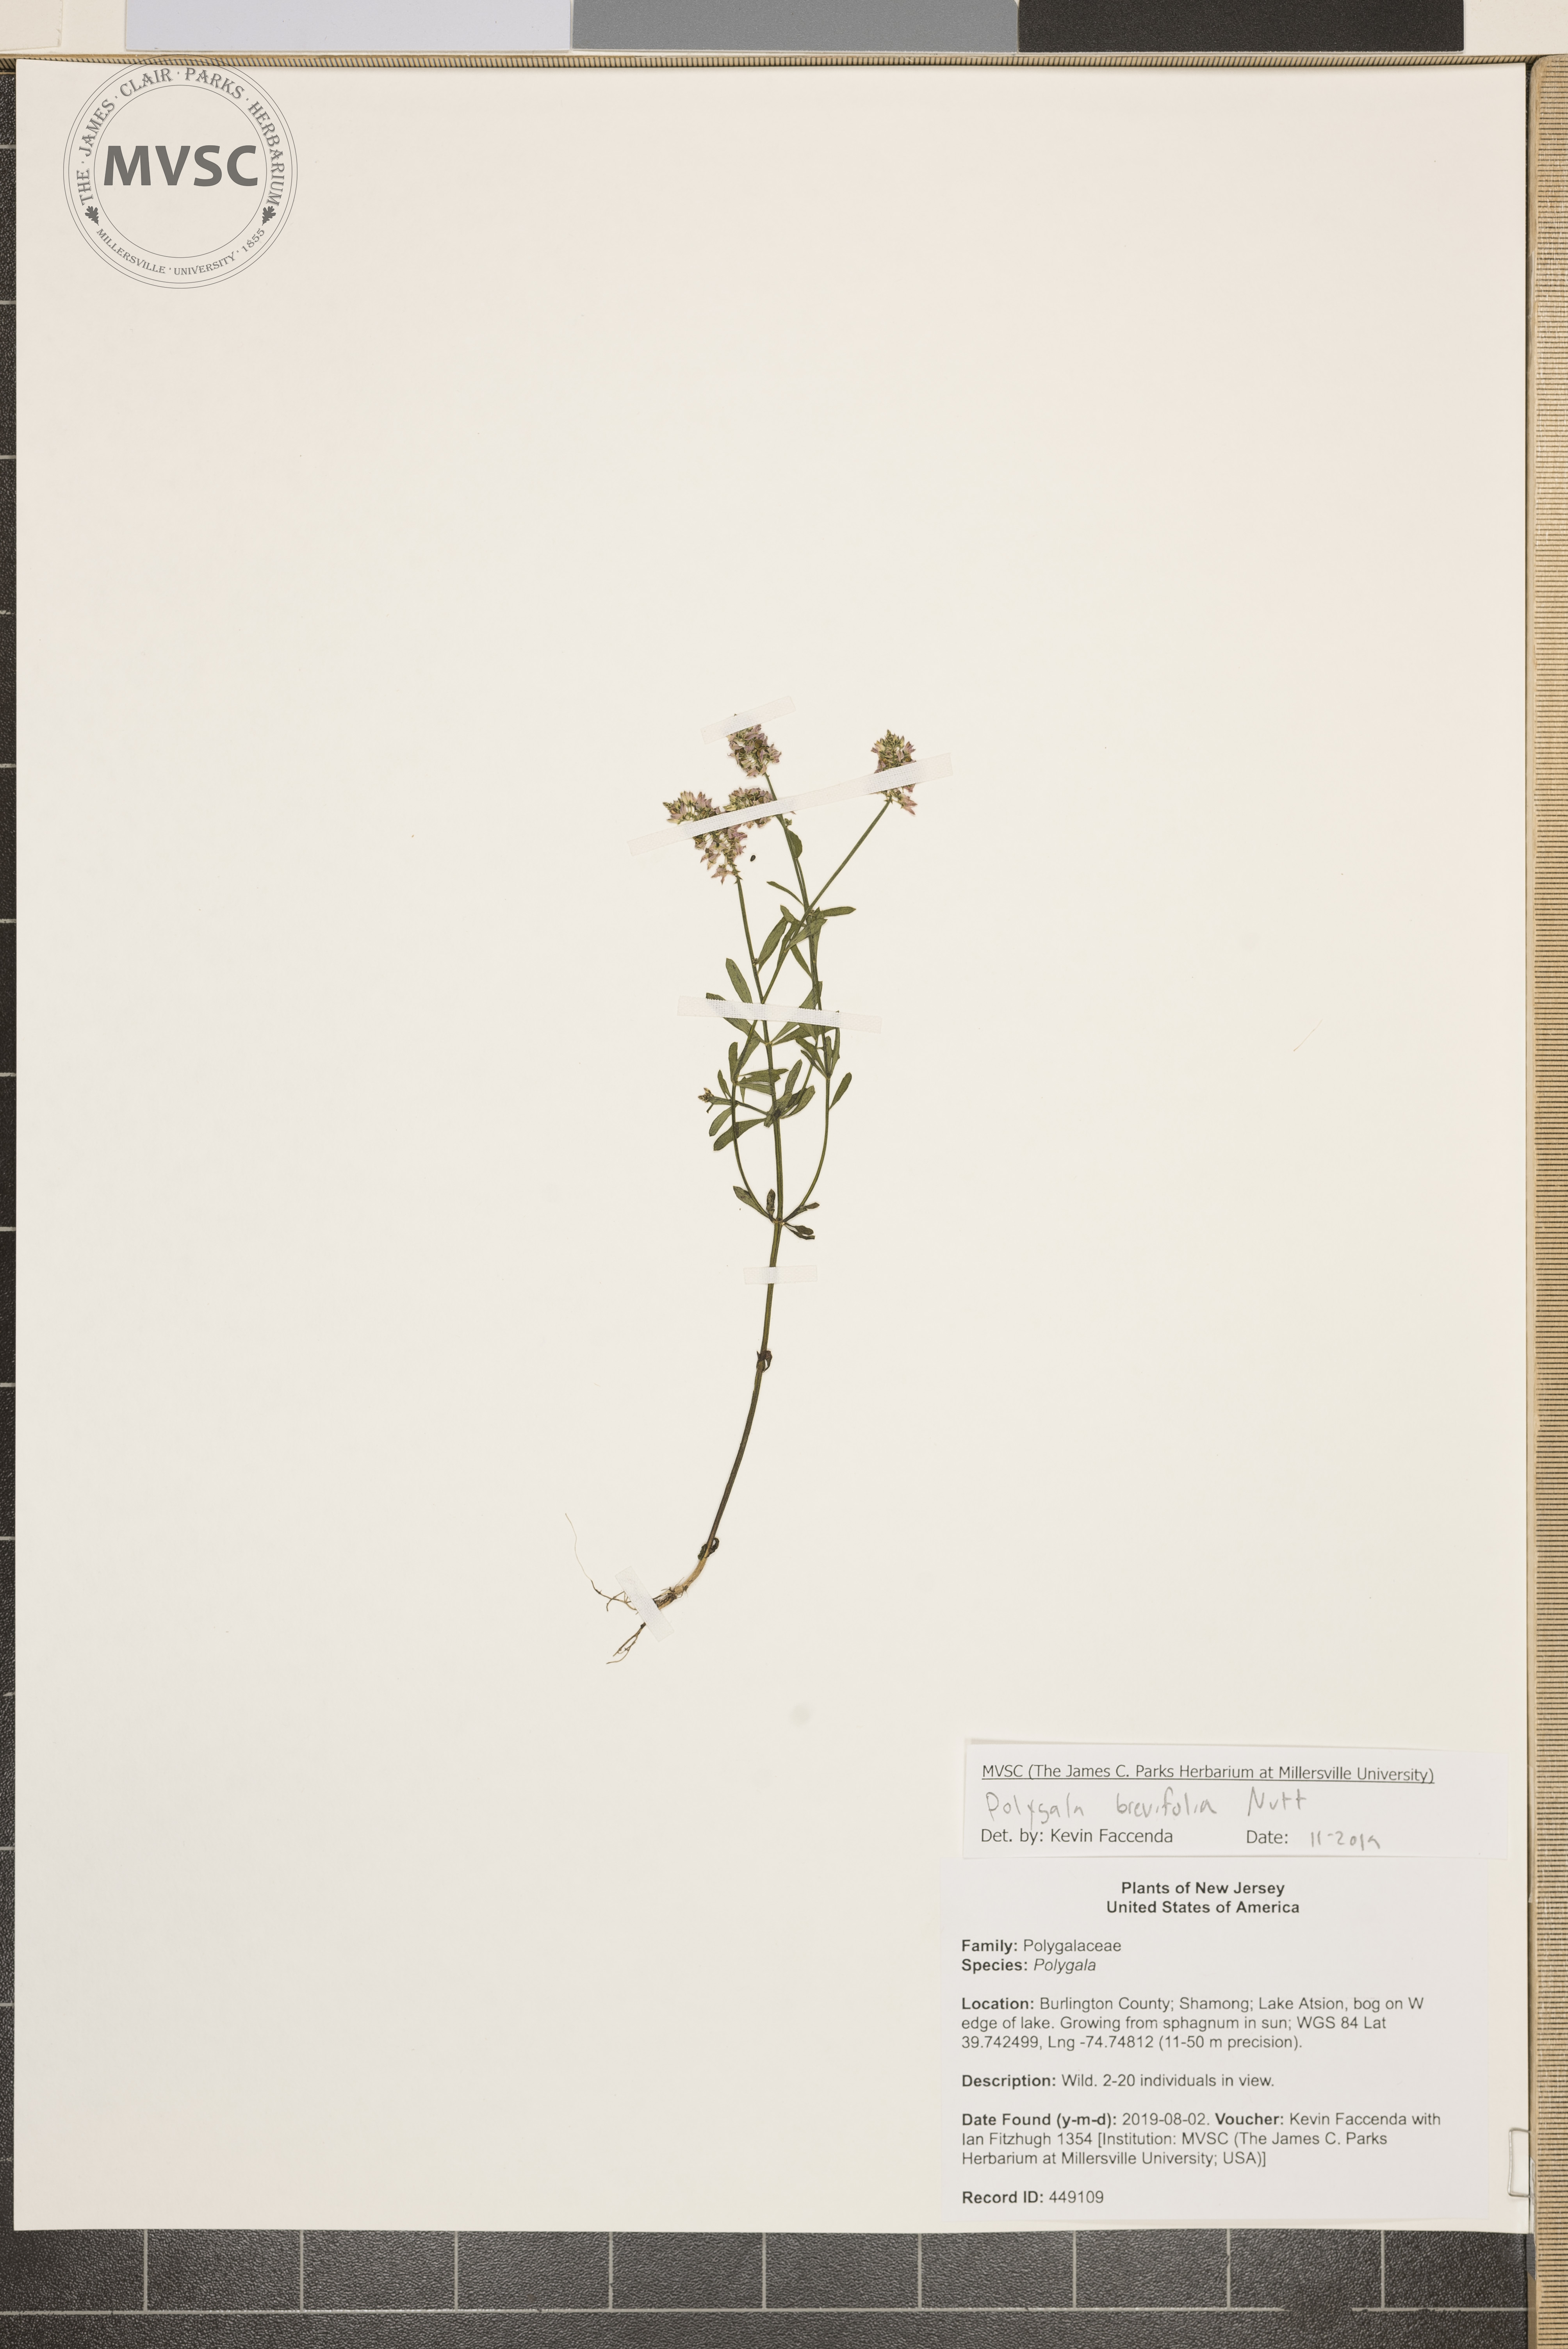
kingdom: Plantae
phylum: Tracheophyta
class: Magnoliopsida
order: Fabales
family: Polygalaceae
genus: Polygala
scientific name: Polygala brevifolia
